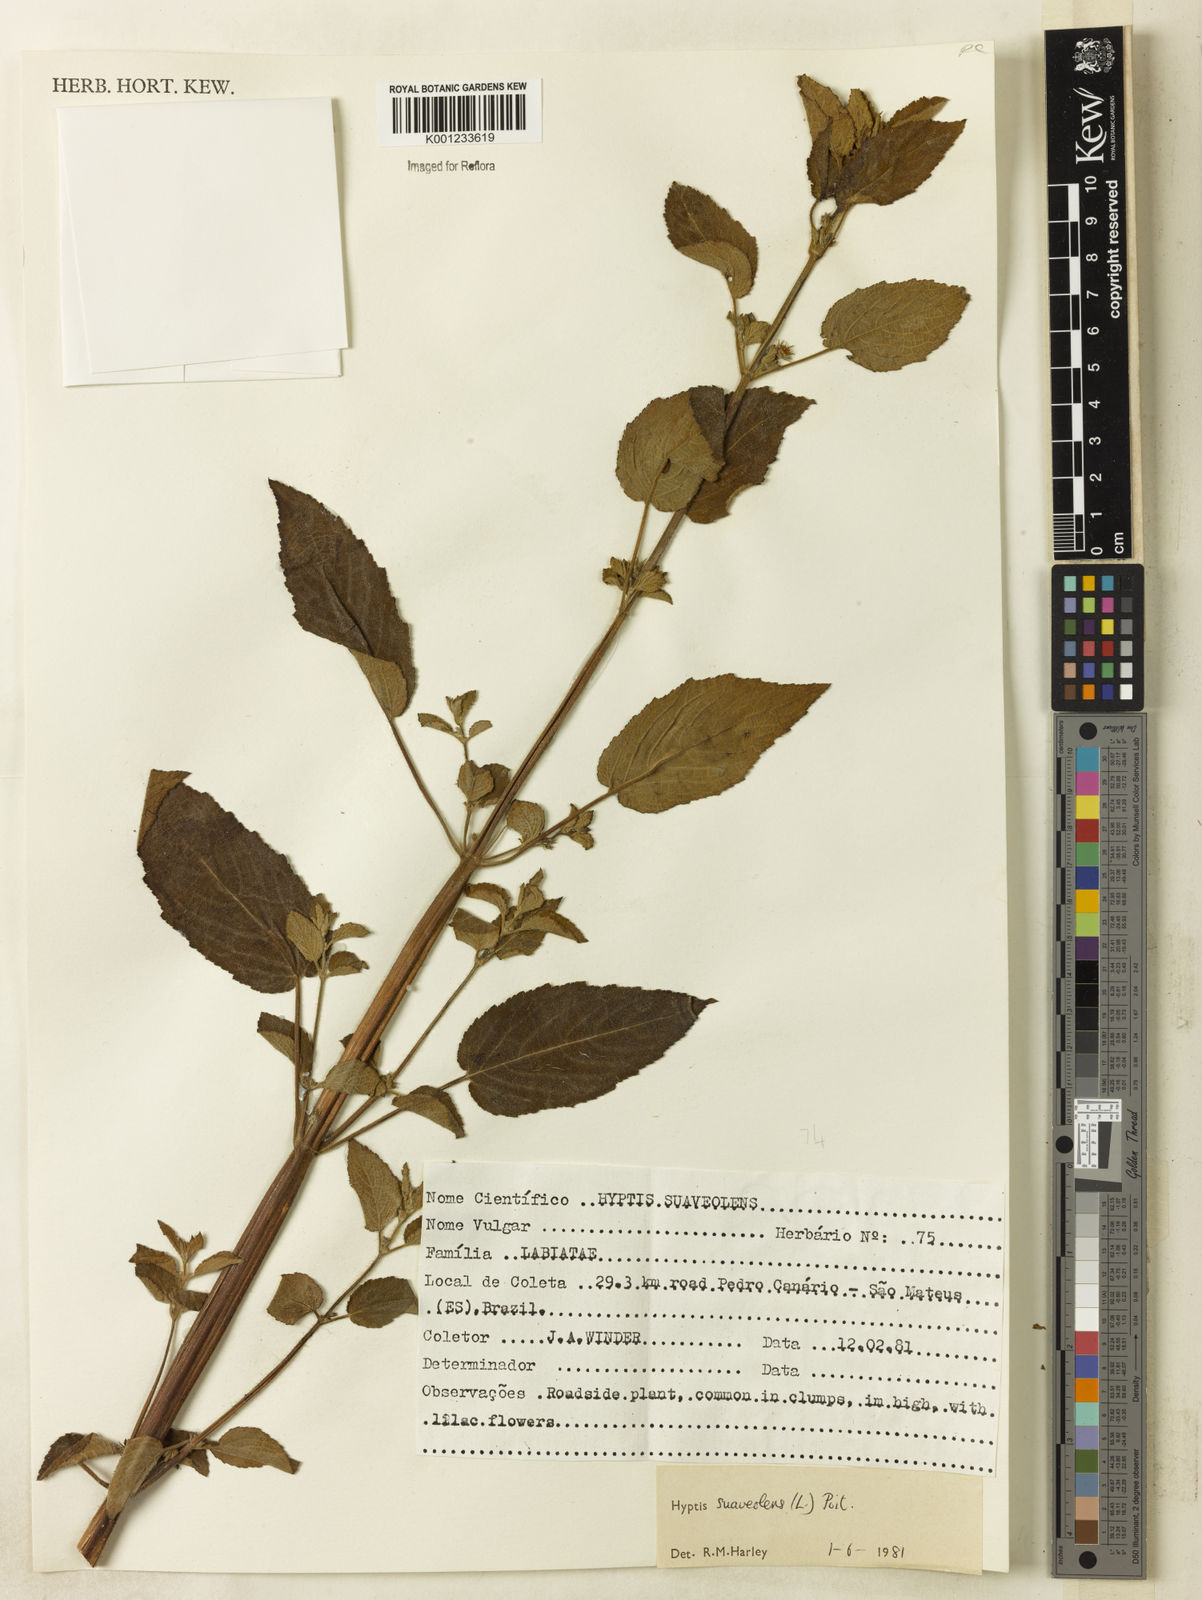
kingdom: Plantae
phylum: Tracheophyta
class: Magnoliopsida
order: Lamiales
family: Lamiaceae
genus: Mesosphaerum
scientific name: Mesosphaerum suaveolens
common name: Pignut
